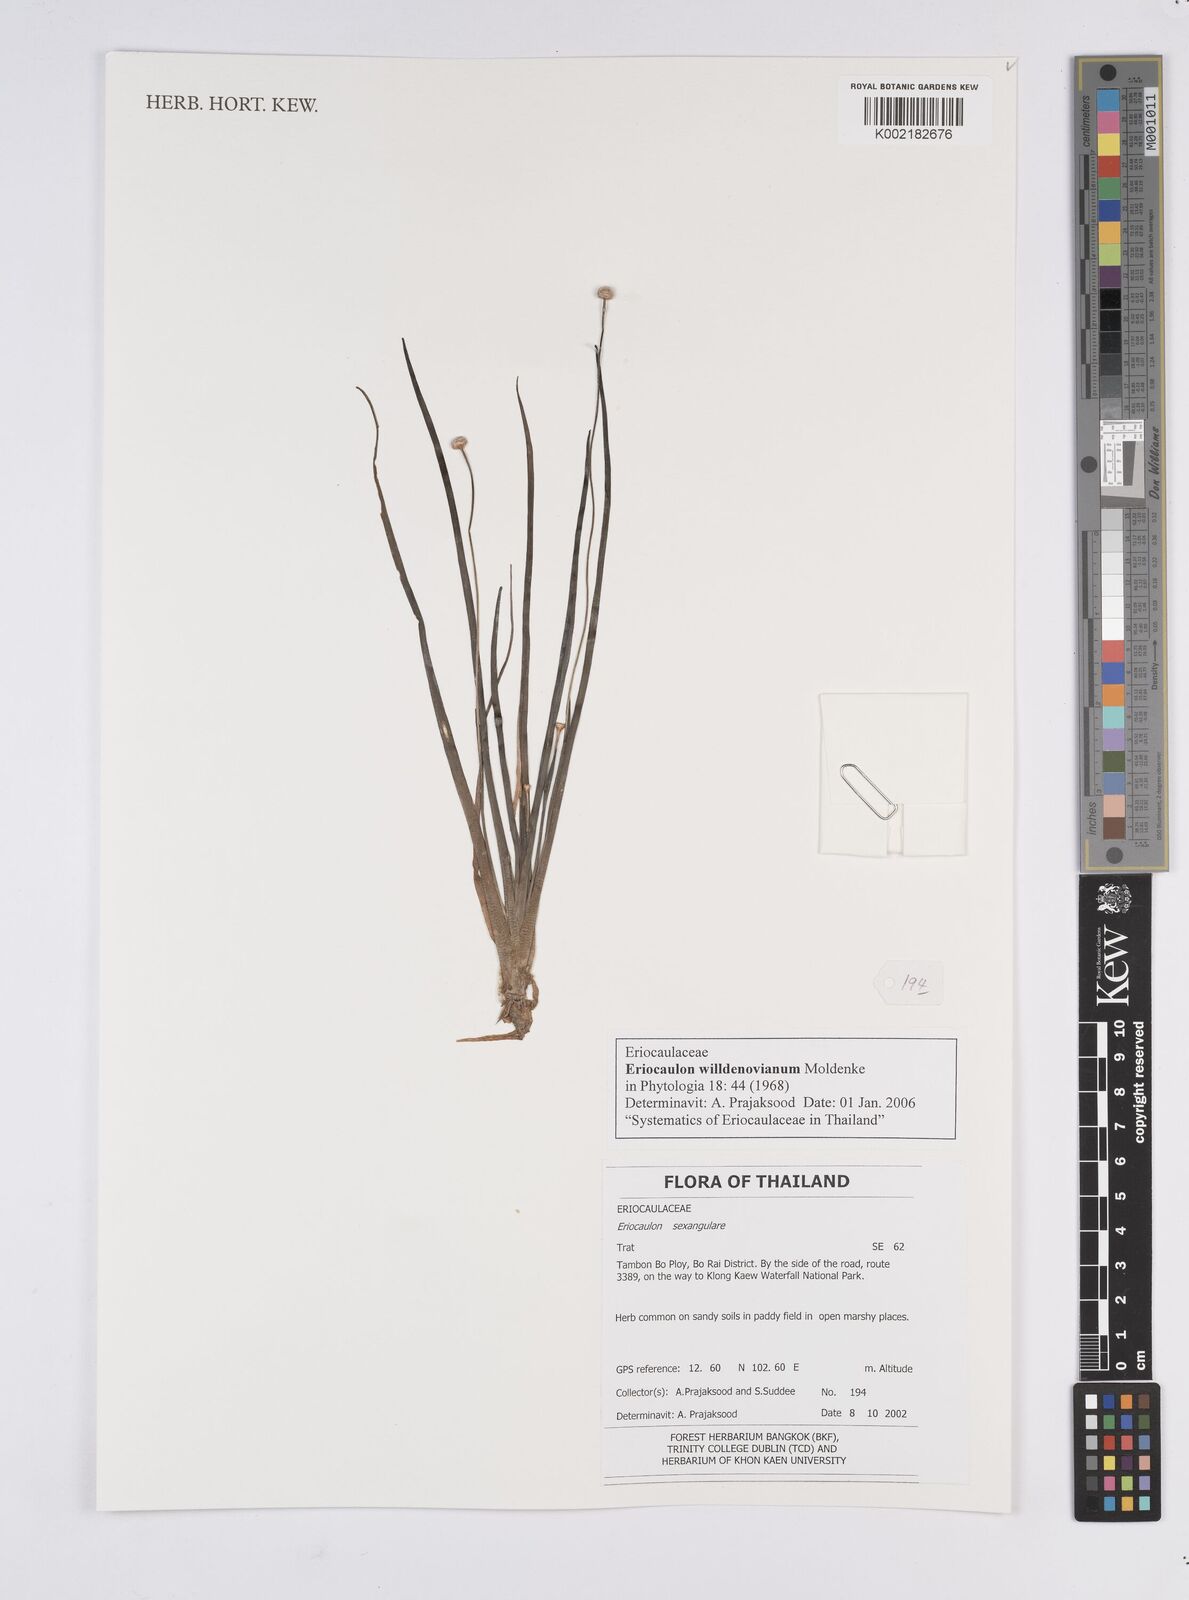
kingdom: Plantae
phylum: Tracheophyta
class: Liliopsida
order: Poales
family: Eriocaulaceae
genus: Eriocaulon
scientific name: Eriocaulon willdenovianum
